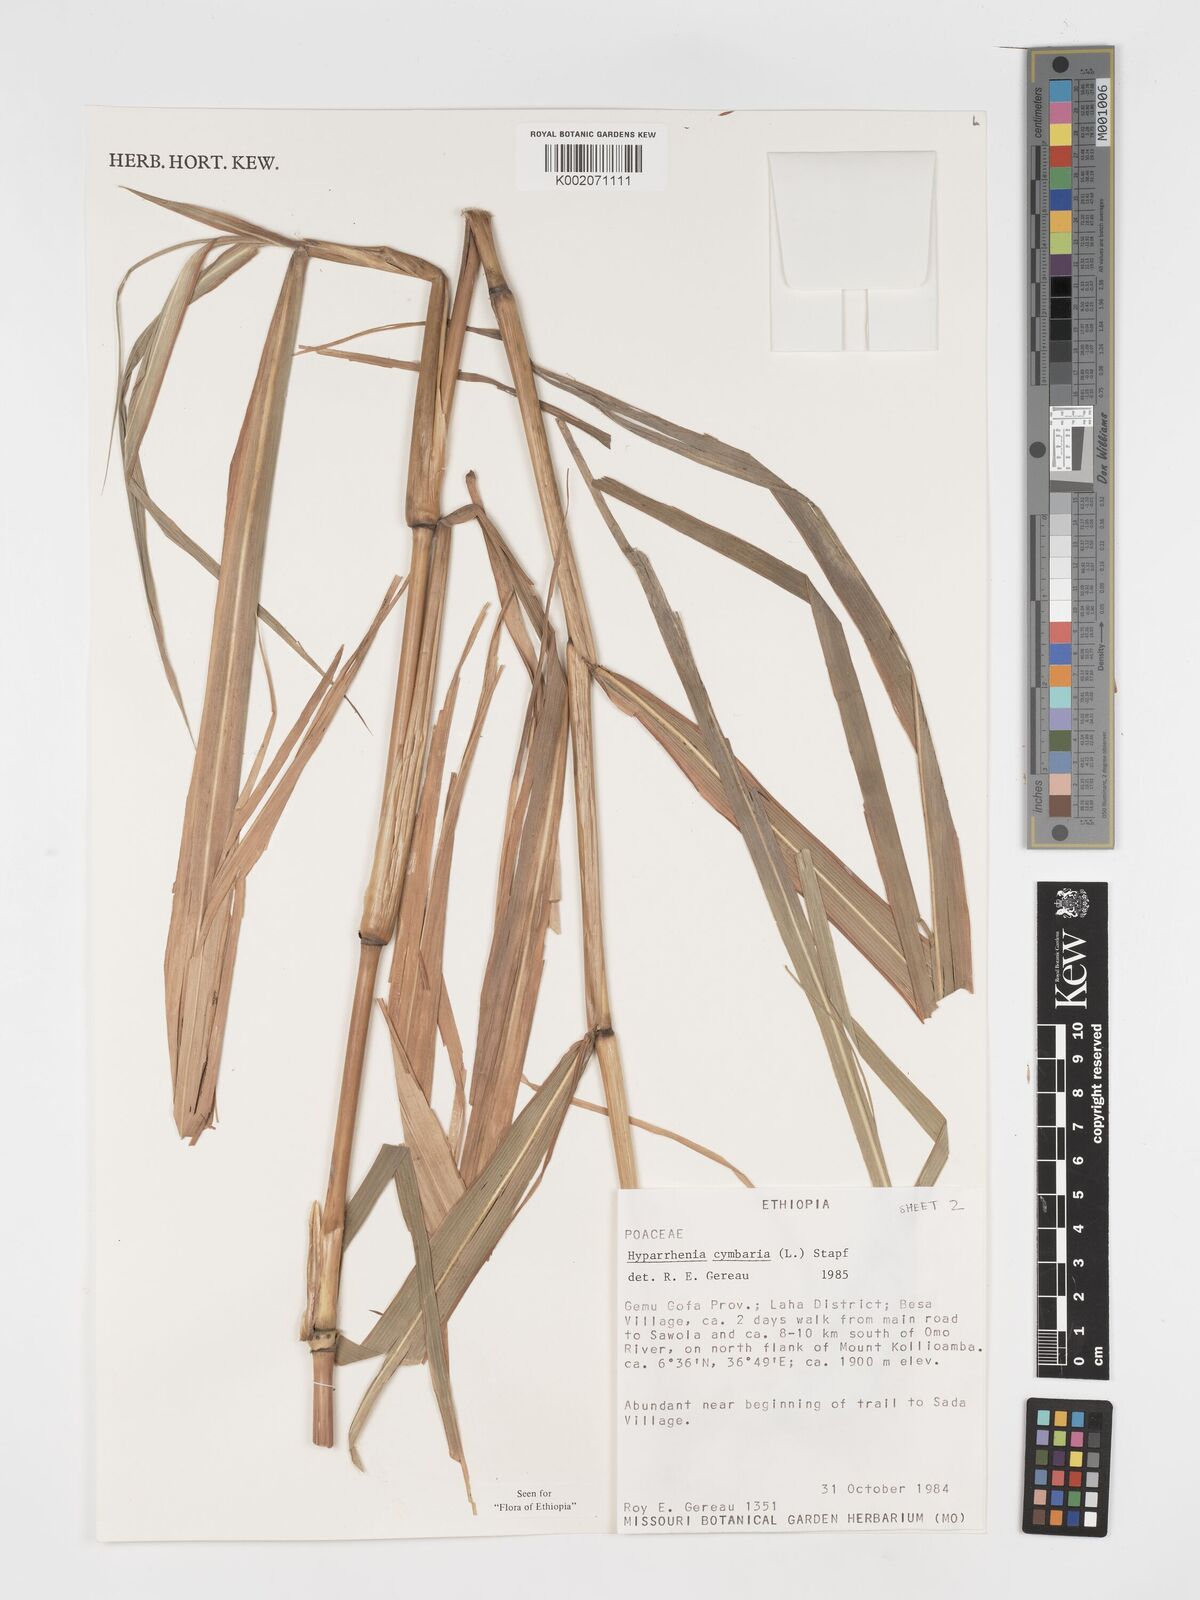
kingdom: Plantae
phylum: Tracheophyta
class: Liliopsida
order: Poales
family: Poaceae
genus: Hyparrhenia
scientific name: Hyparrhenia cymbaria
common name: Boat thatching grass
